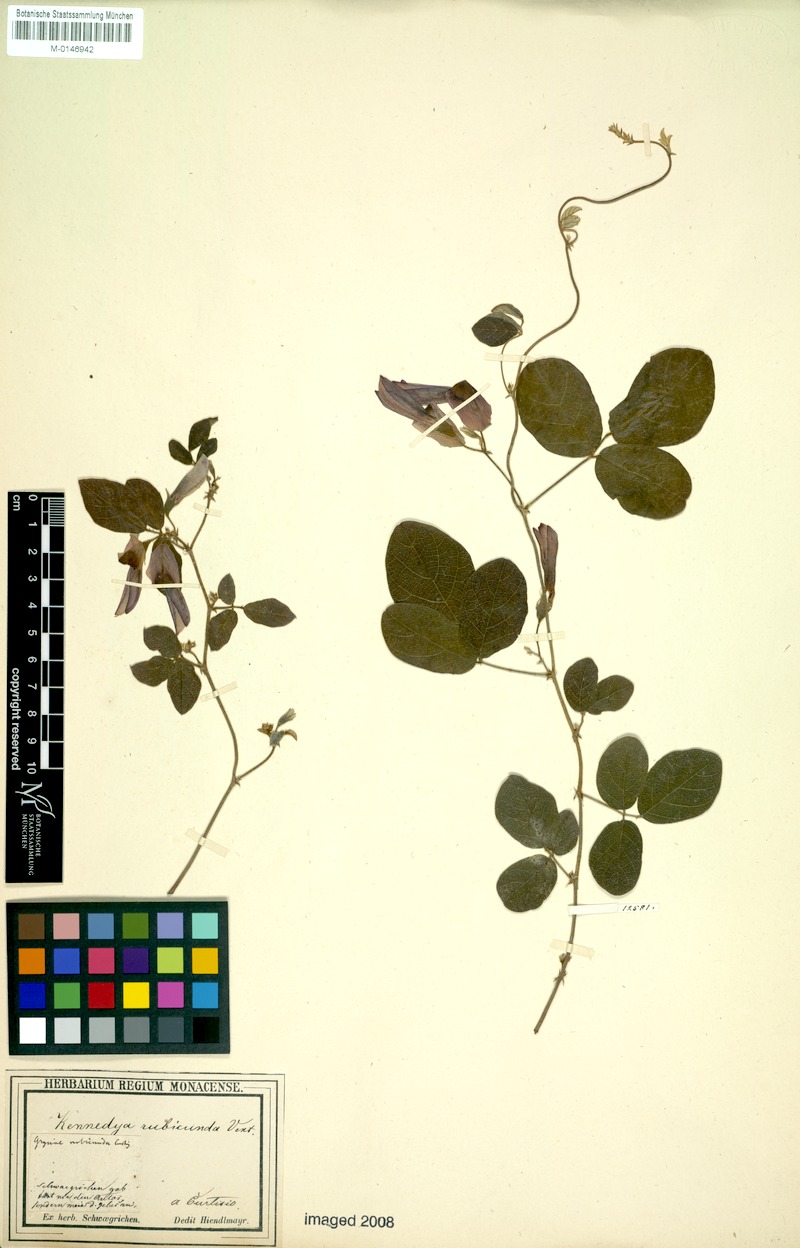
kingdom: Plantae
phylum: Tracheophyta
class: Magnoliopsida
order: Fabales
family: Fabaceae
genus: Kennedia
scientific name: Kennedia rubicunda
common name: Red kennedy-pea
